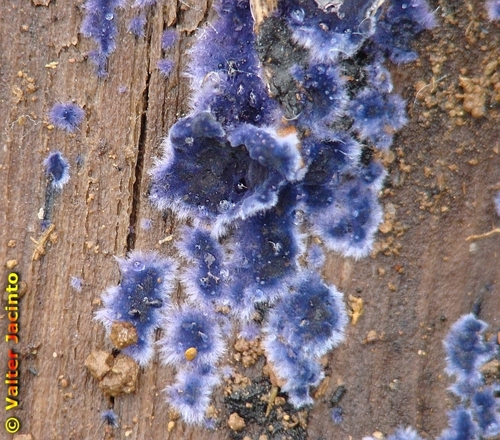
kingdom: Fungi
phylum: Basidiomycota
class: Agaricomycetes
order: Polyporales
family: Phanerochaetaceae
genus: Terana
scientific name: Terana caerulea
